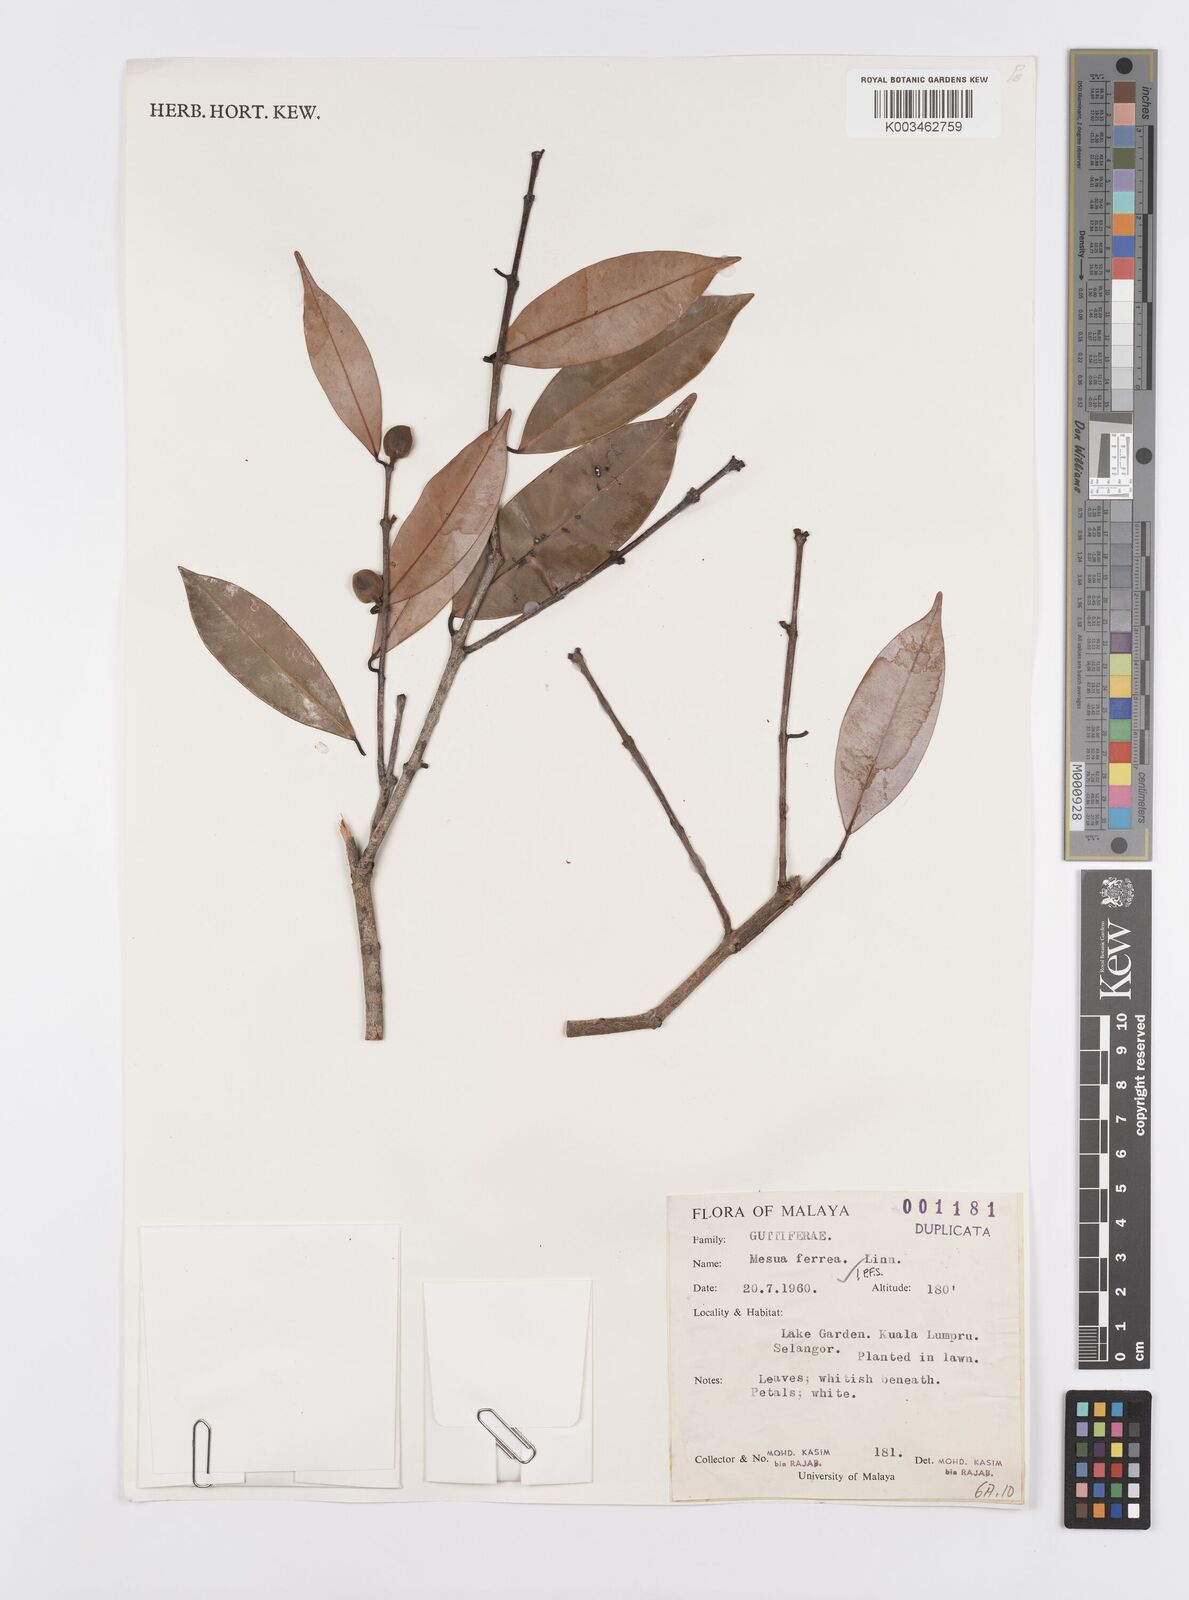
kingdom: Plantae
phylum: Tracheophyta
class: Magnoliopsida
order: Malpighiales
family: Calophyllaceae
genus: Mesua
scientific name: Mesua ferrea
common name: Mesua
